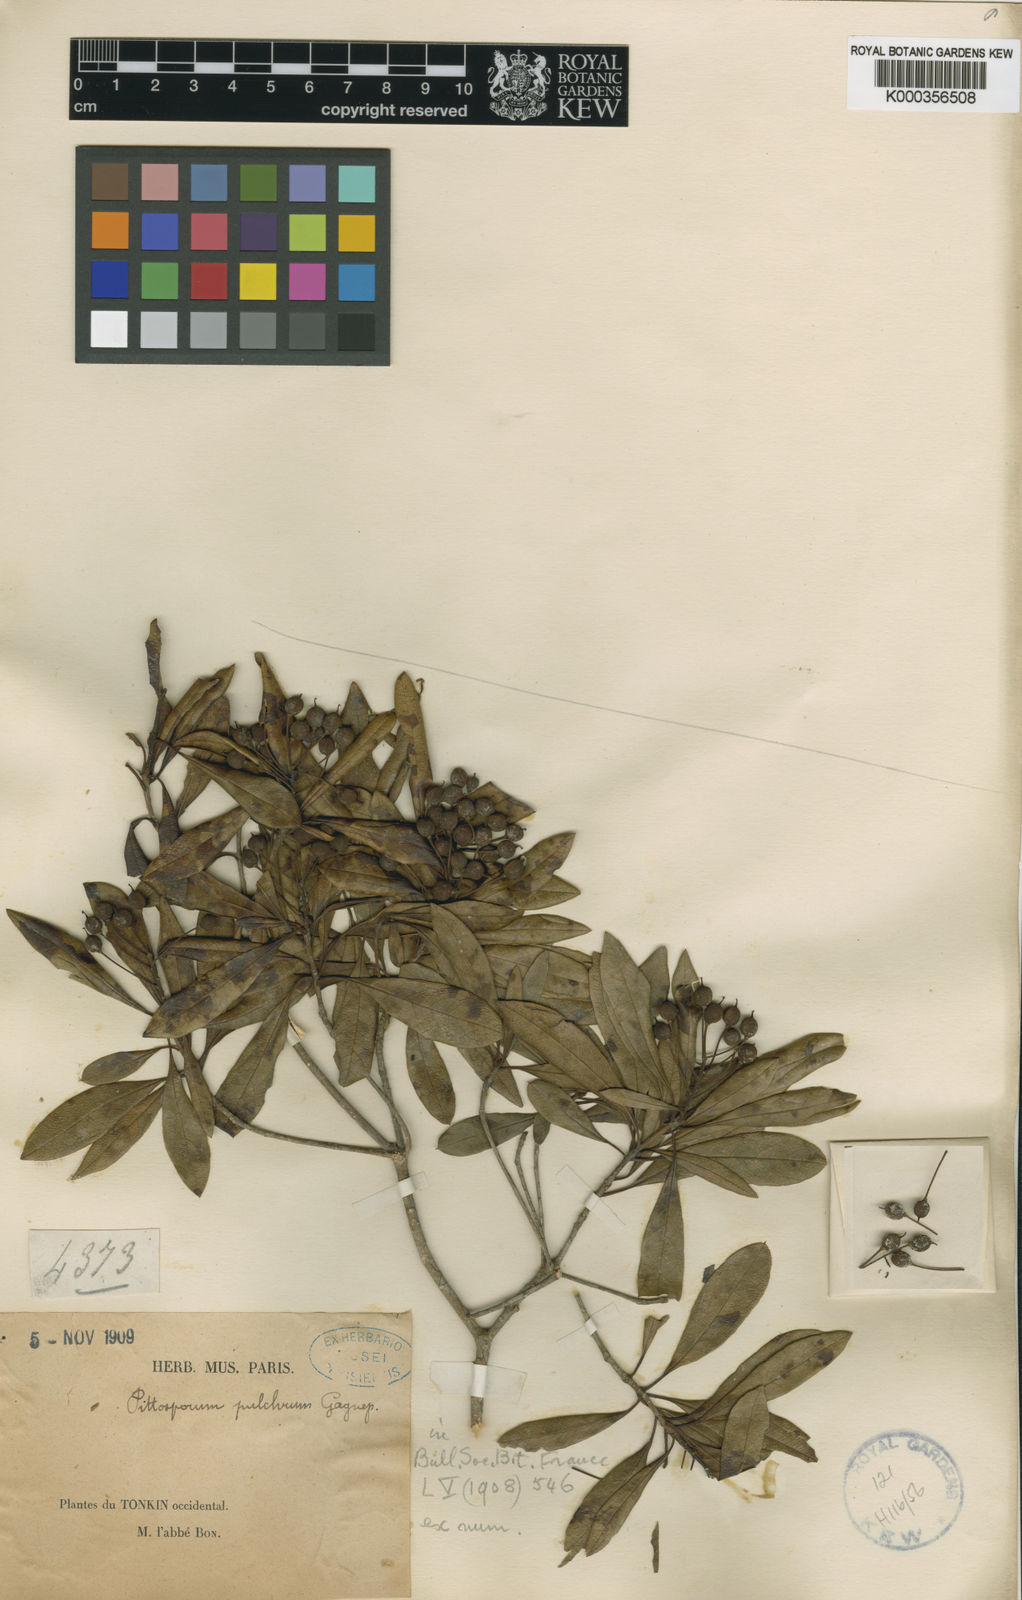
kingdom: Plantae
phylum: Tracheophyta
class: Magnoliopsida
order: Apiales
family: Pittosporaceae
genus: Pittosporum
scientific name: Pittosporum gagnepainii
